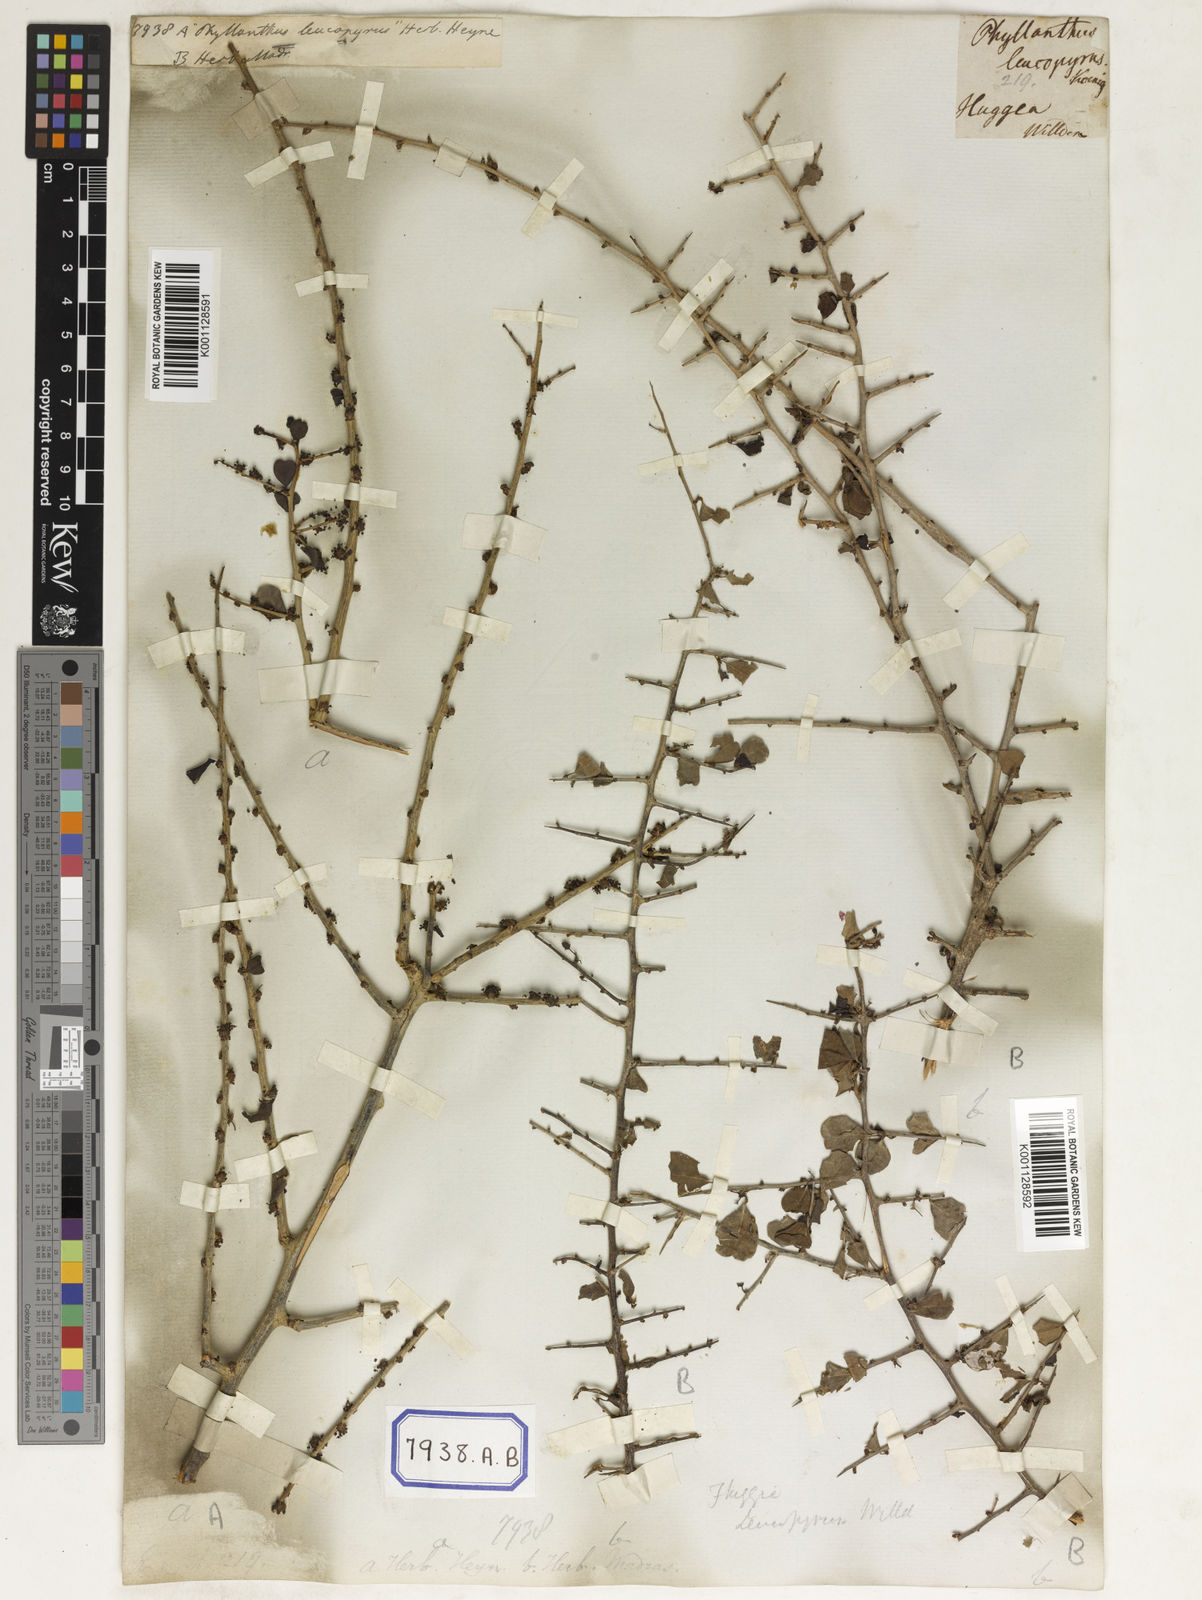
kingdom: Plantae
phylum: Tracheophyta
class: Magnoliopsida
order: Malpighiales
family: Euphorbiaceae
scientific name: Euphorbiaceae
